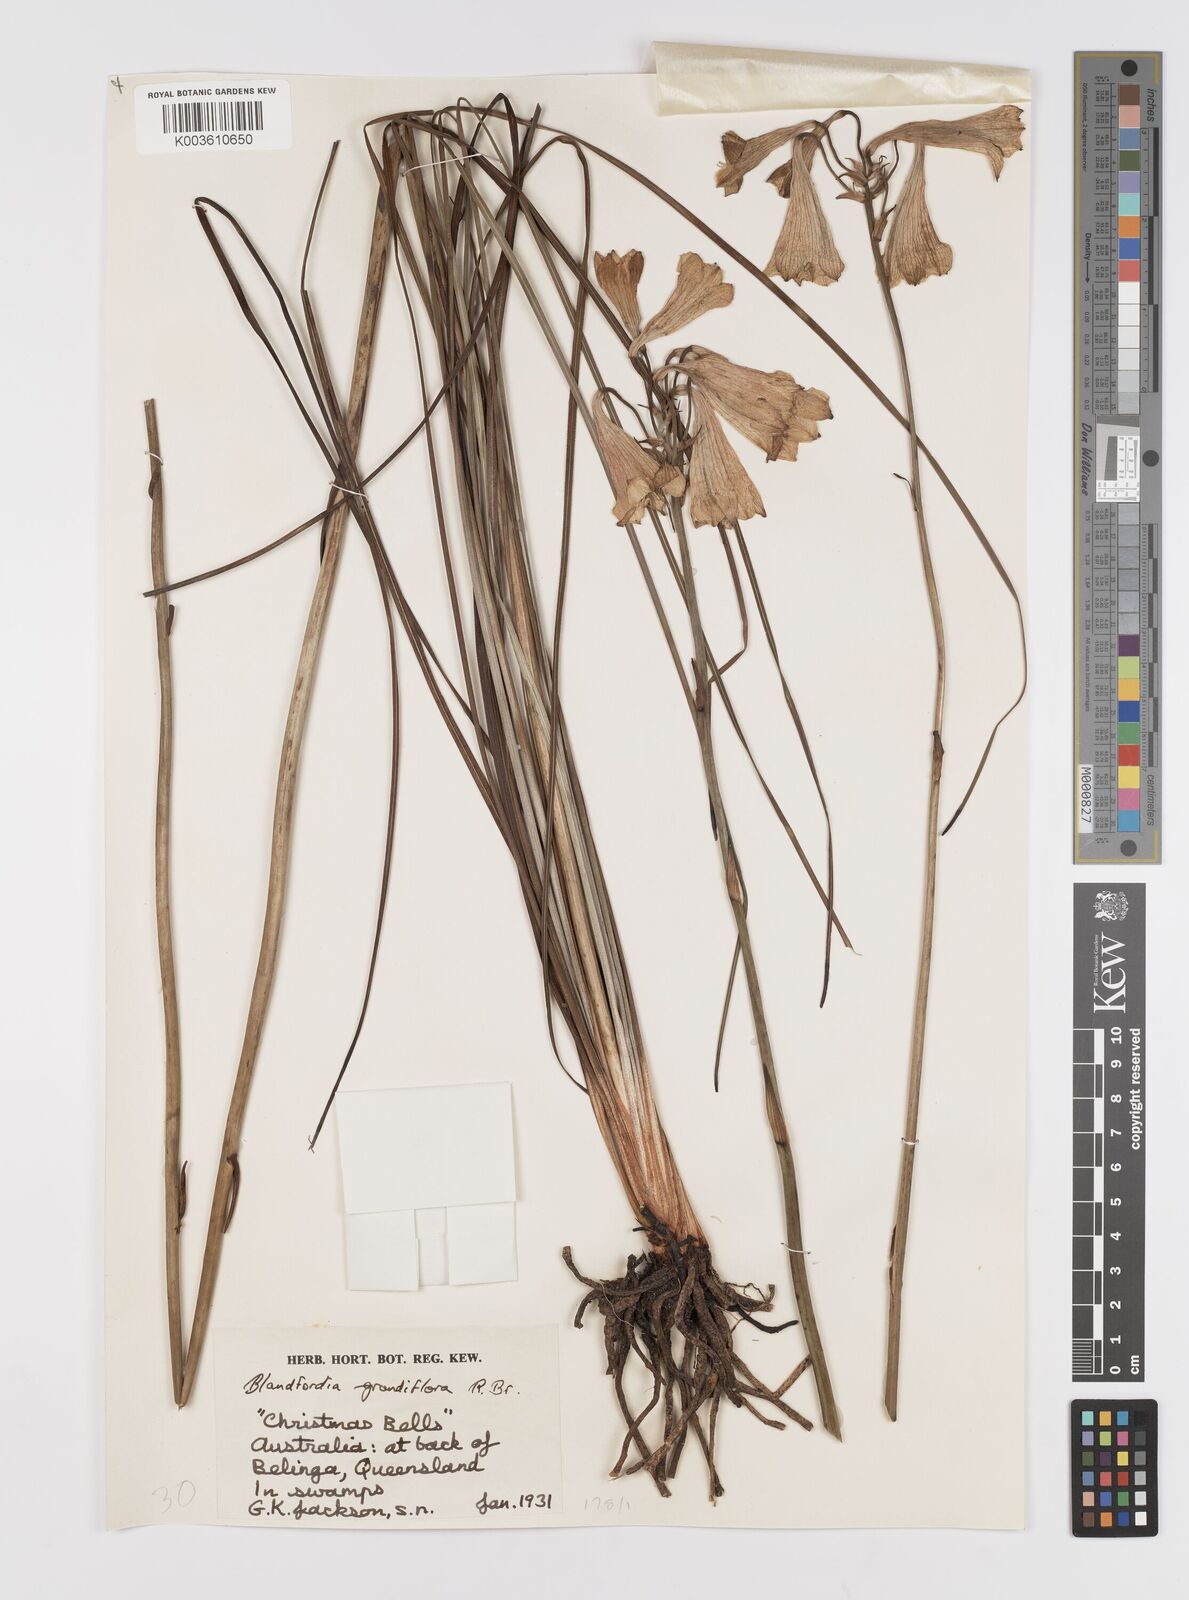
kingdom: Plantae
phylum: Tracheophyta
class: Liliopsida
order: Asparagales
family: Blandfordiaceae
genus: Blandfordia
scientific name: Blandfordia punicea
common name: Tasmanian christmas-bell
